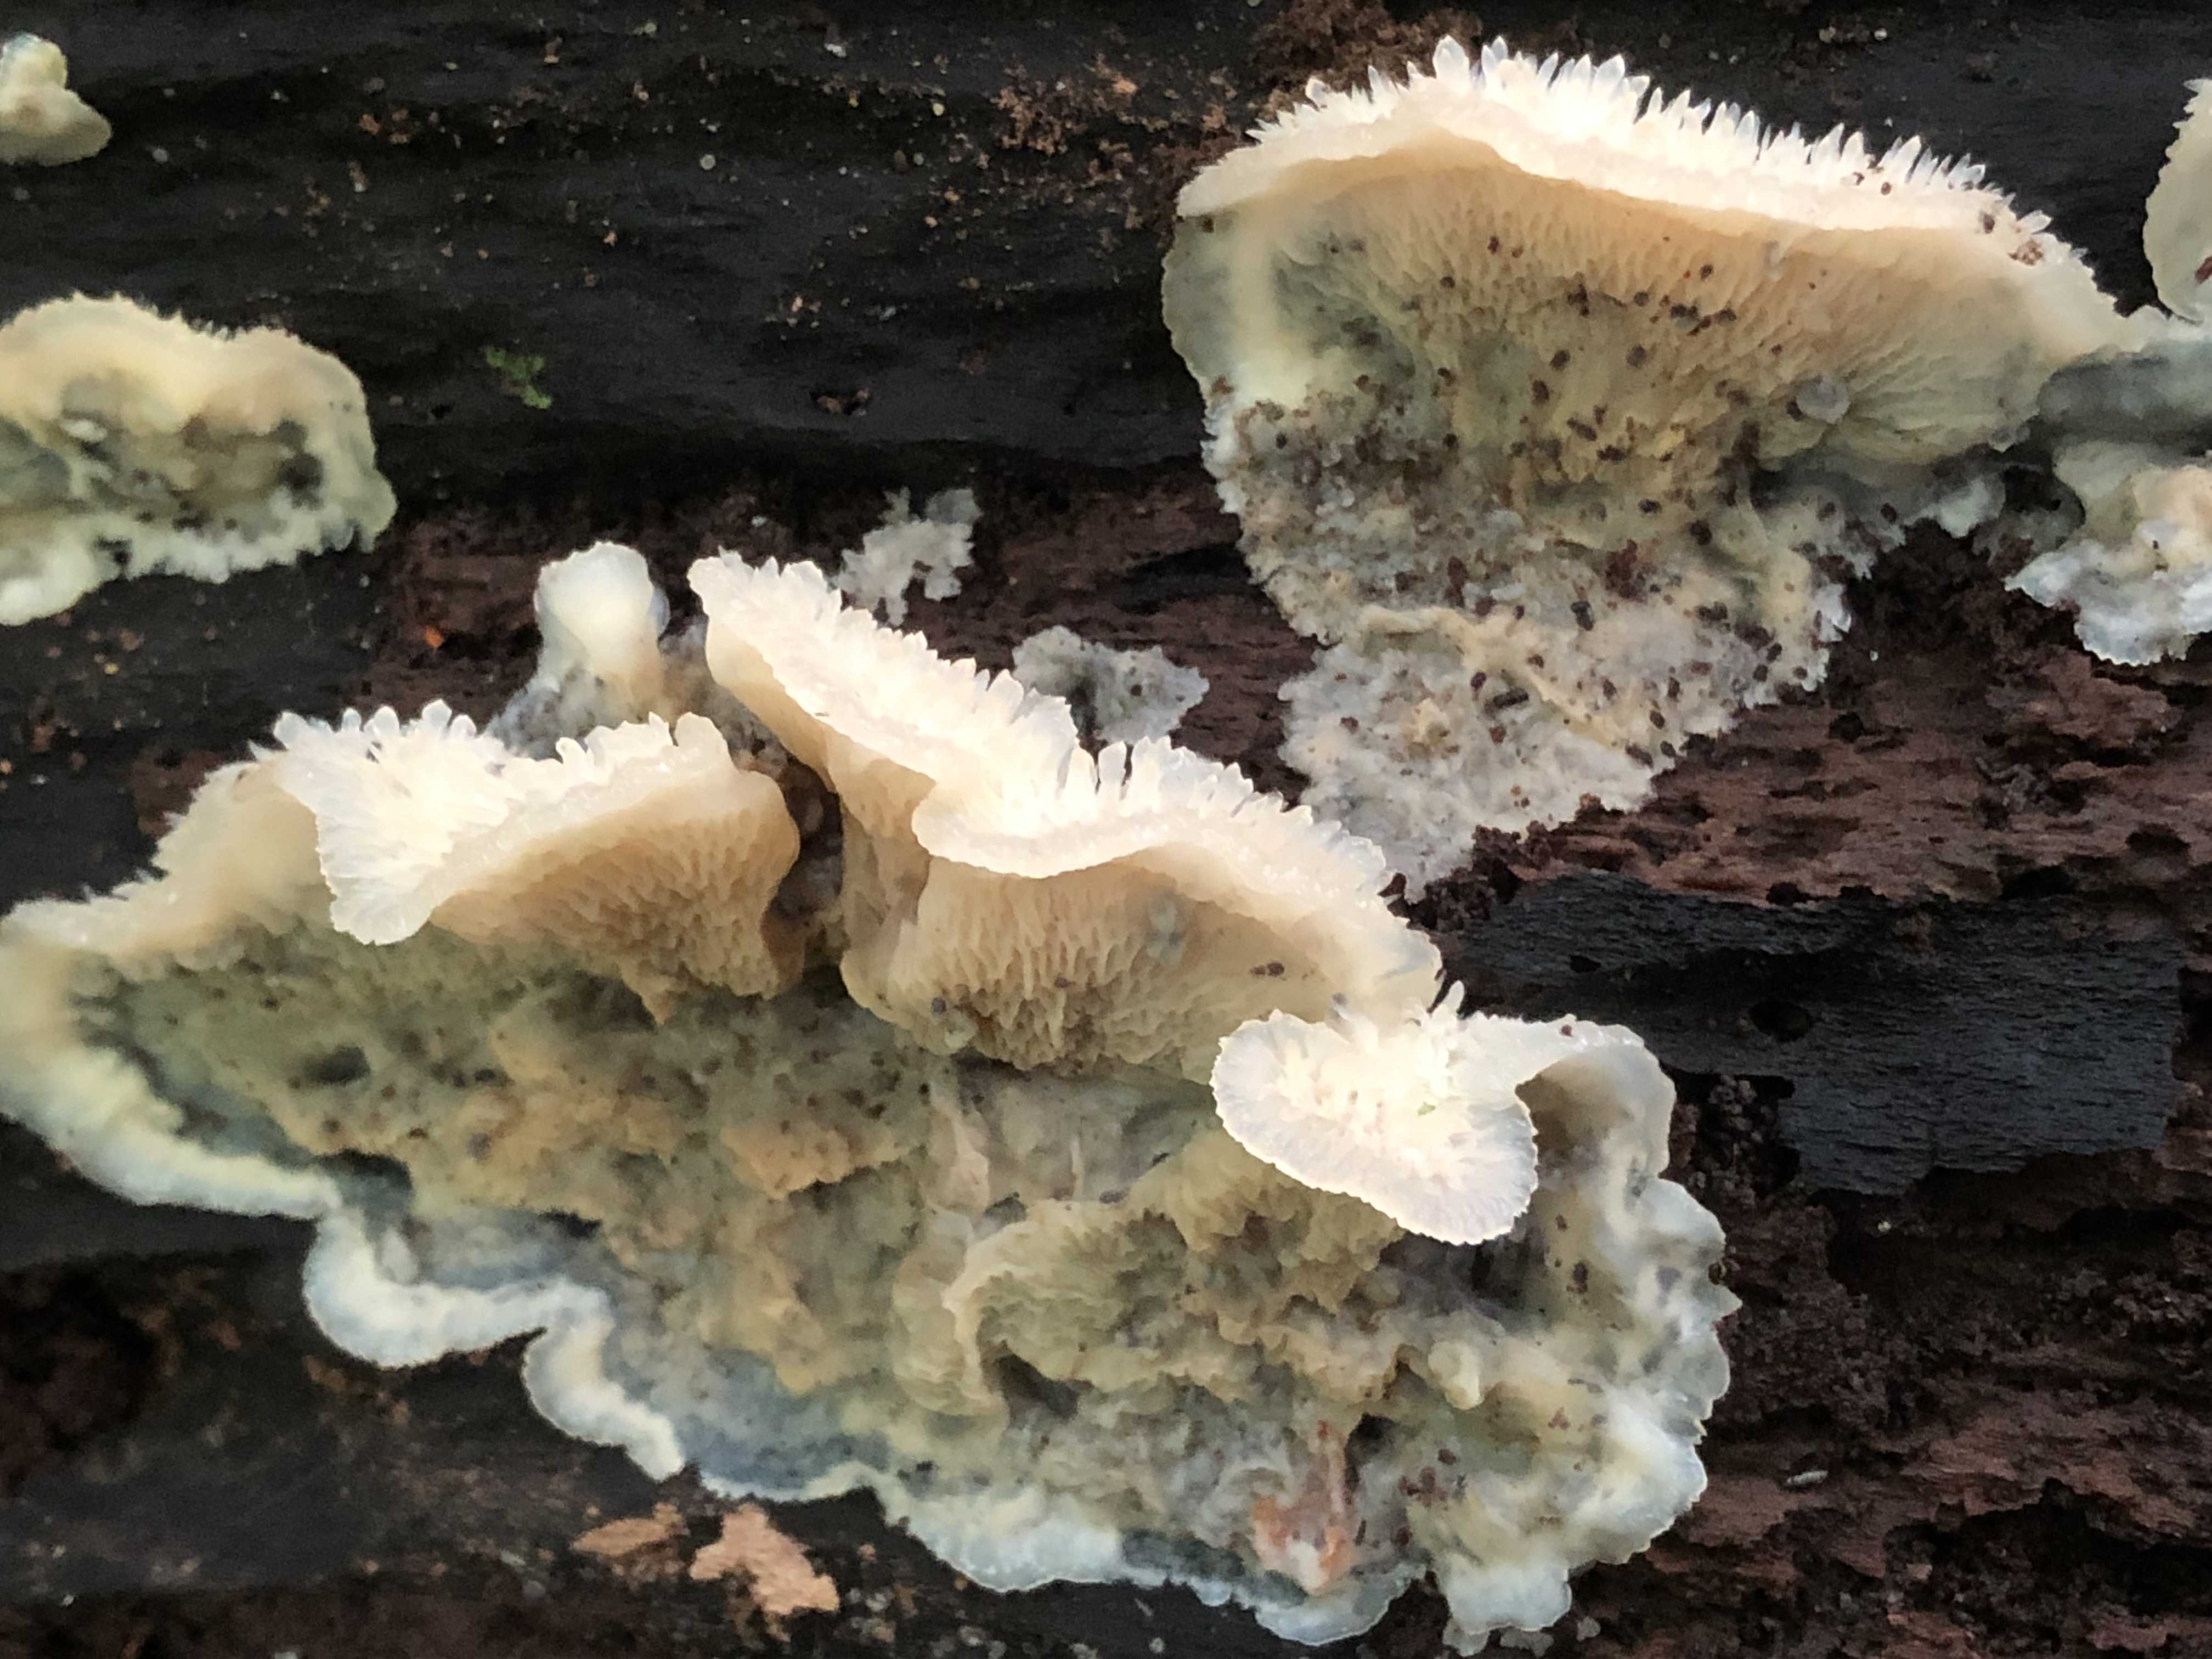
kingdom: Fungi
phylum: Basidiomycota
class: Agaricomycetes
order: Polyporales
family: Meruliaceae
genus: Phlebia
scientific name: Phlebia tremellosa
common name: bævrende åresvamp
